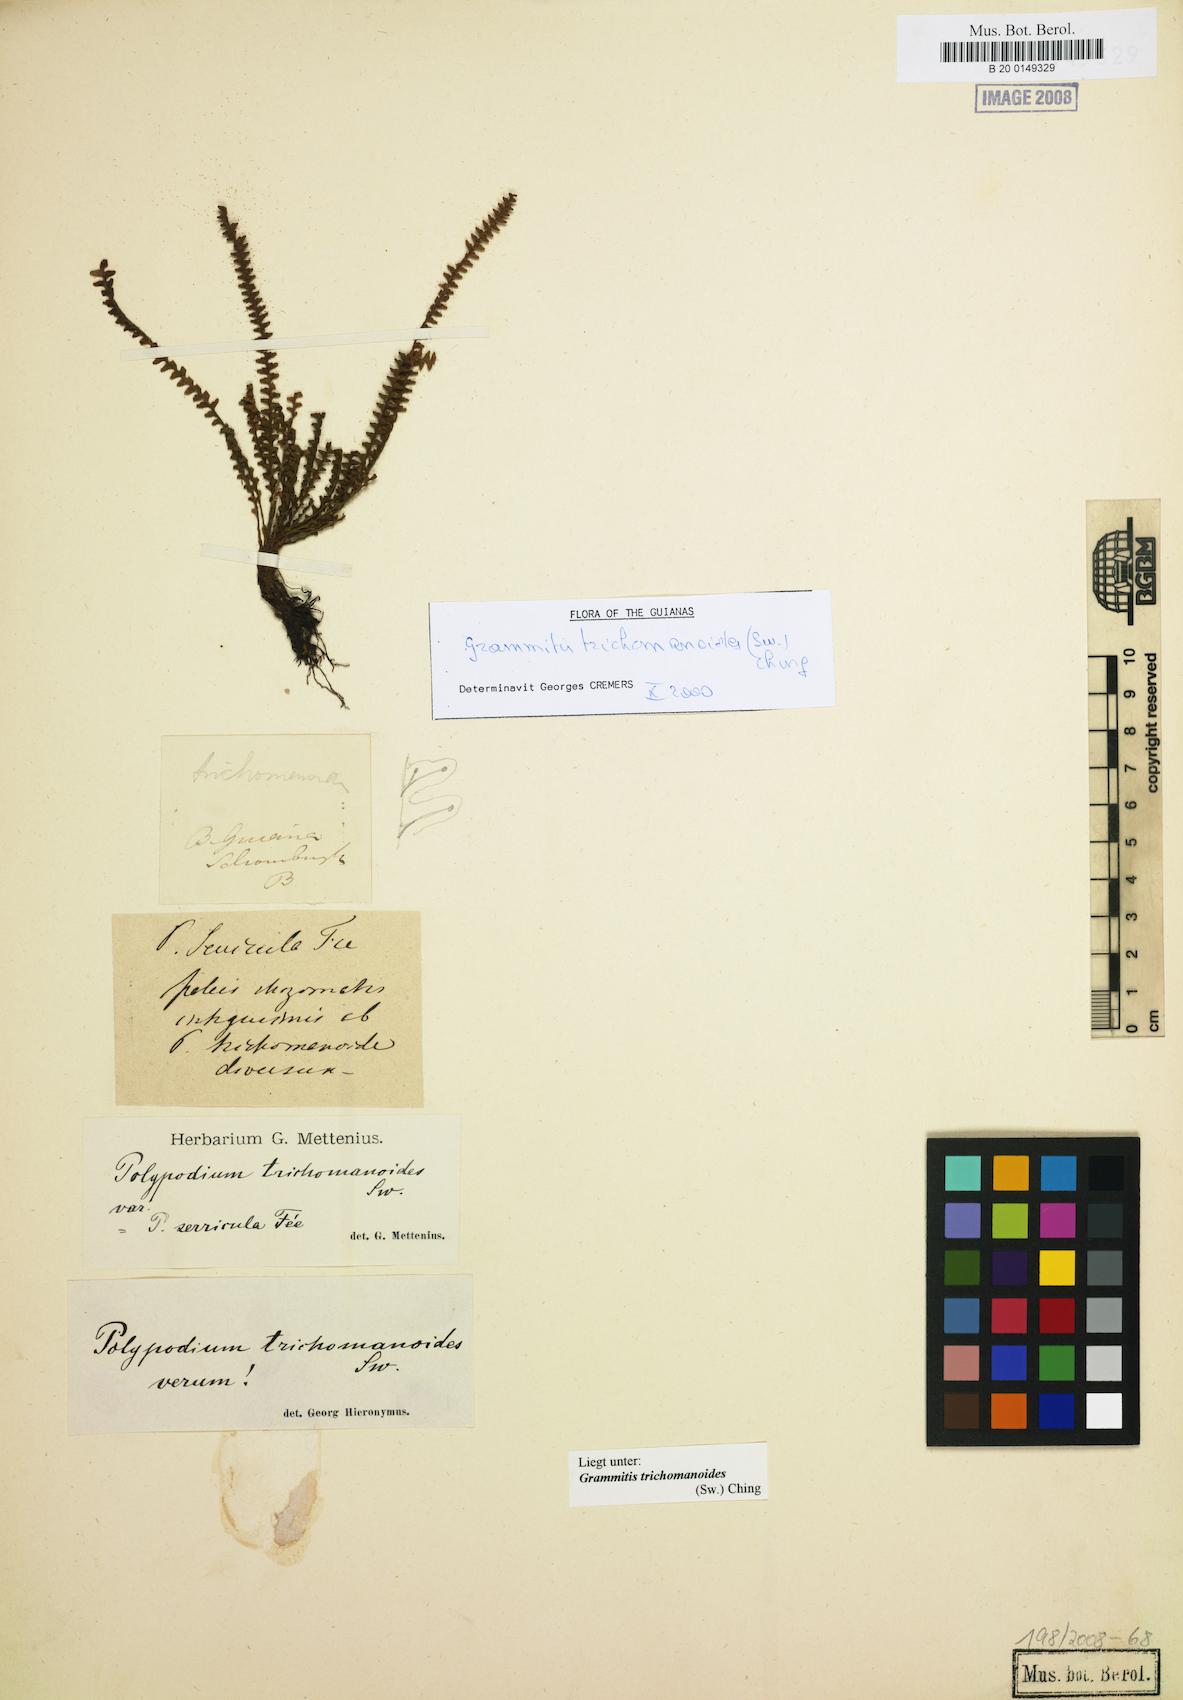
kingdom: Plantae
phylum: Tracheophyta
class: Polypodiopsida
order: Polypodiales
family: Polypodiaceae
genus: Moranopteris
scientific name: Moranopteris trichomanoides
